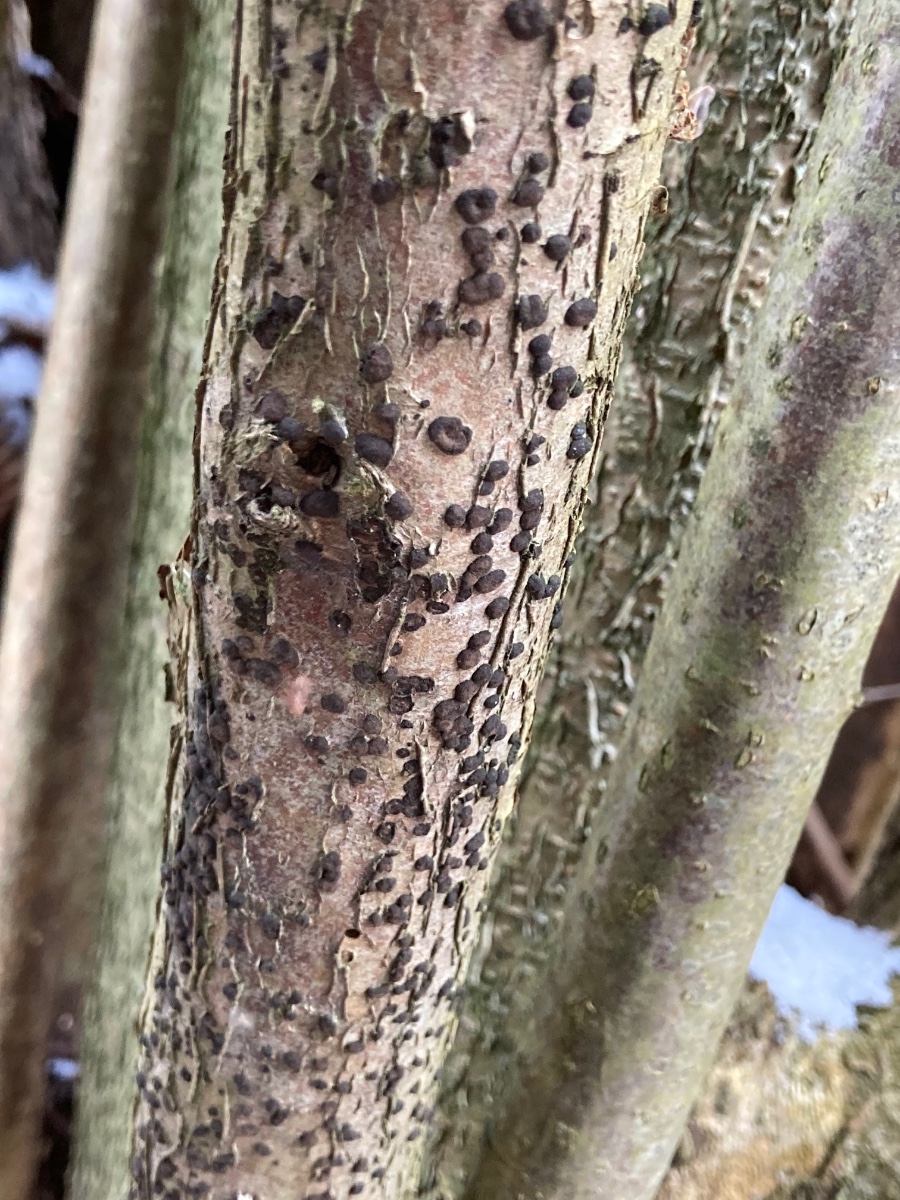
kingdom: Fungi
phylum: Ascomycota
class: Sordariomycetes
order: Xylariales
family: Hypoxylaceae
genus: Hypoxylon
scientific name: Hypoxylon fuscum
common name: kegleformet kulbær
